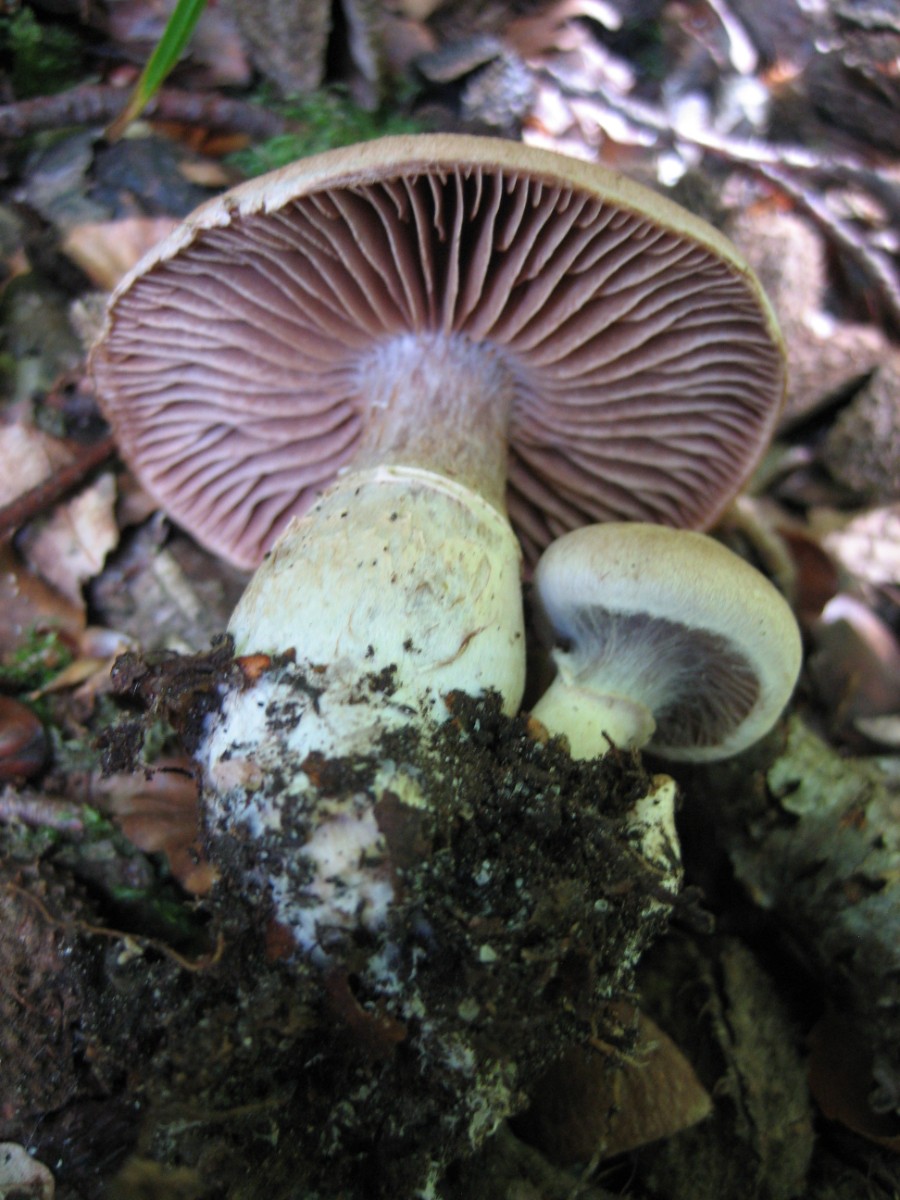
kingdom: Fungi
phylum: Basidiomycota
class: Agaricomycetes
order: Agaricales
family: Cortinariaceae
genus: Cortinarius
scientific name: Cortinarius torvus
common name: champignonagtig slørhat
